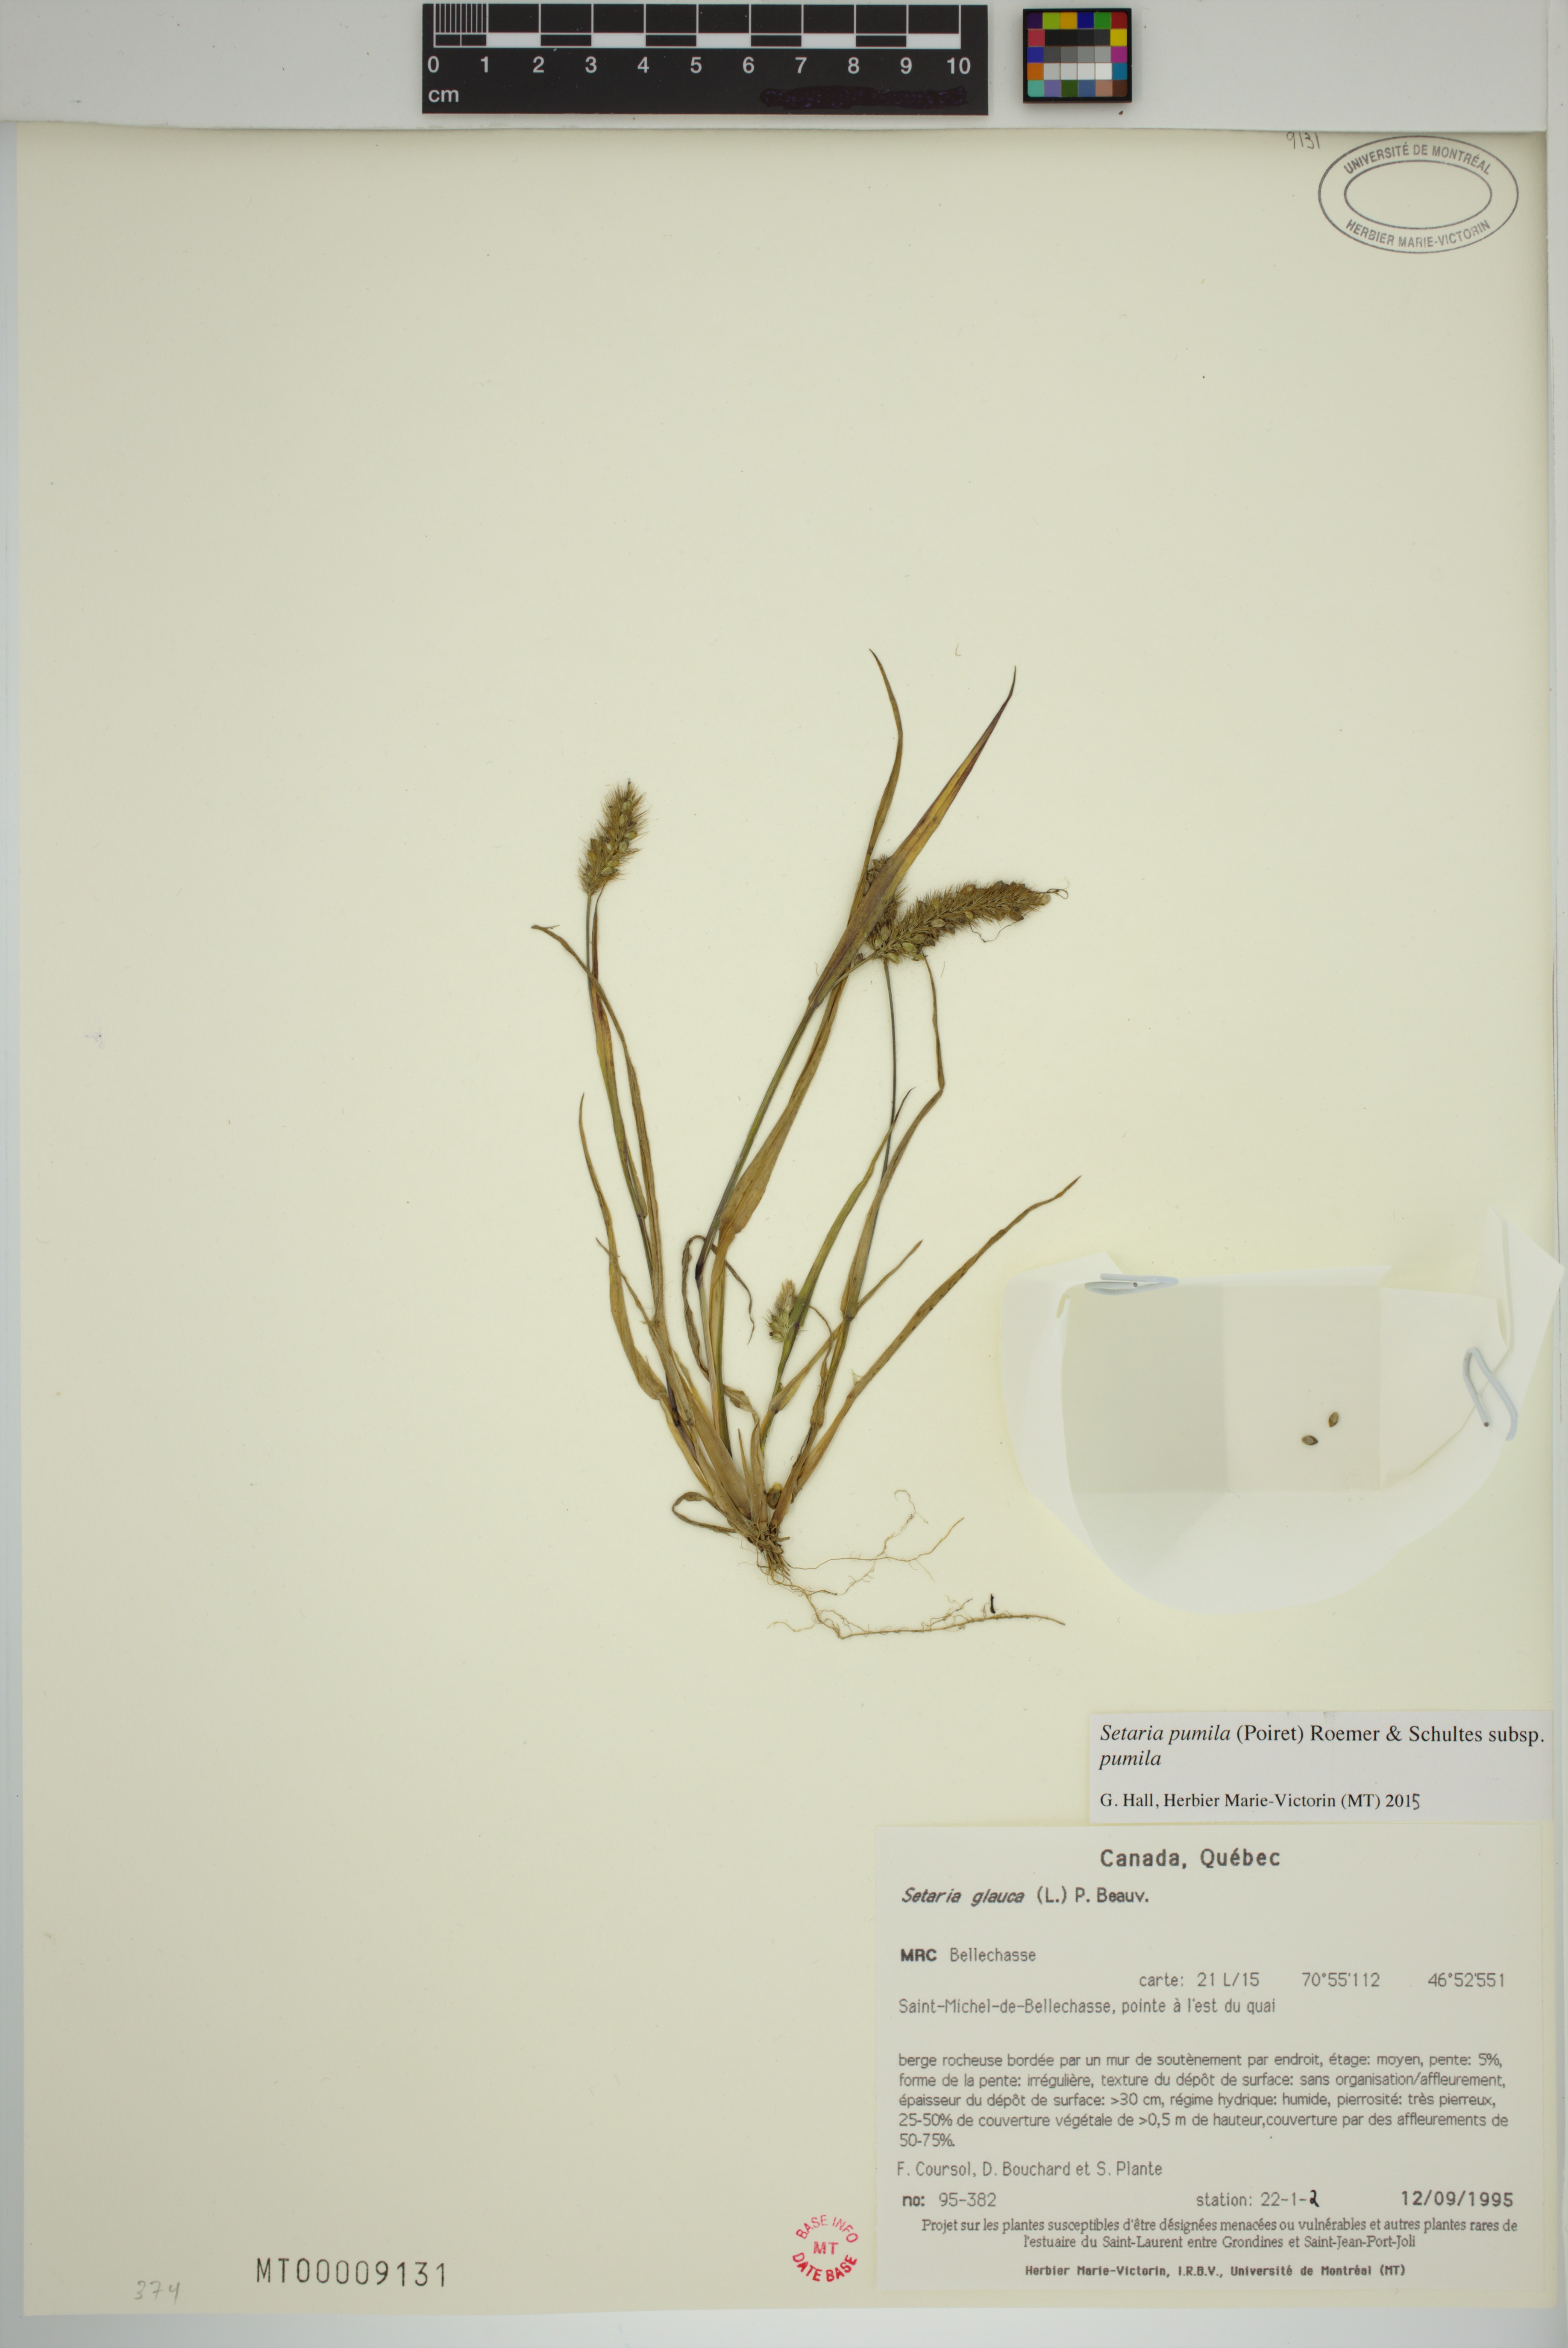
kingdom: Plantae
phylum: Tracheophyta
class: Liliopsida
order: Poales
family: Poaceae
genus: Setaria
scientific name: Setaria pumila
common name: Yellow bristle-grass
